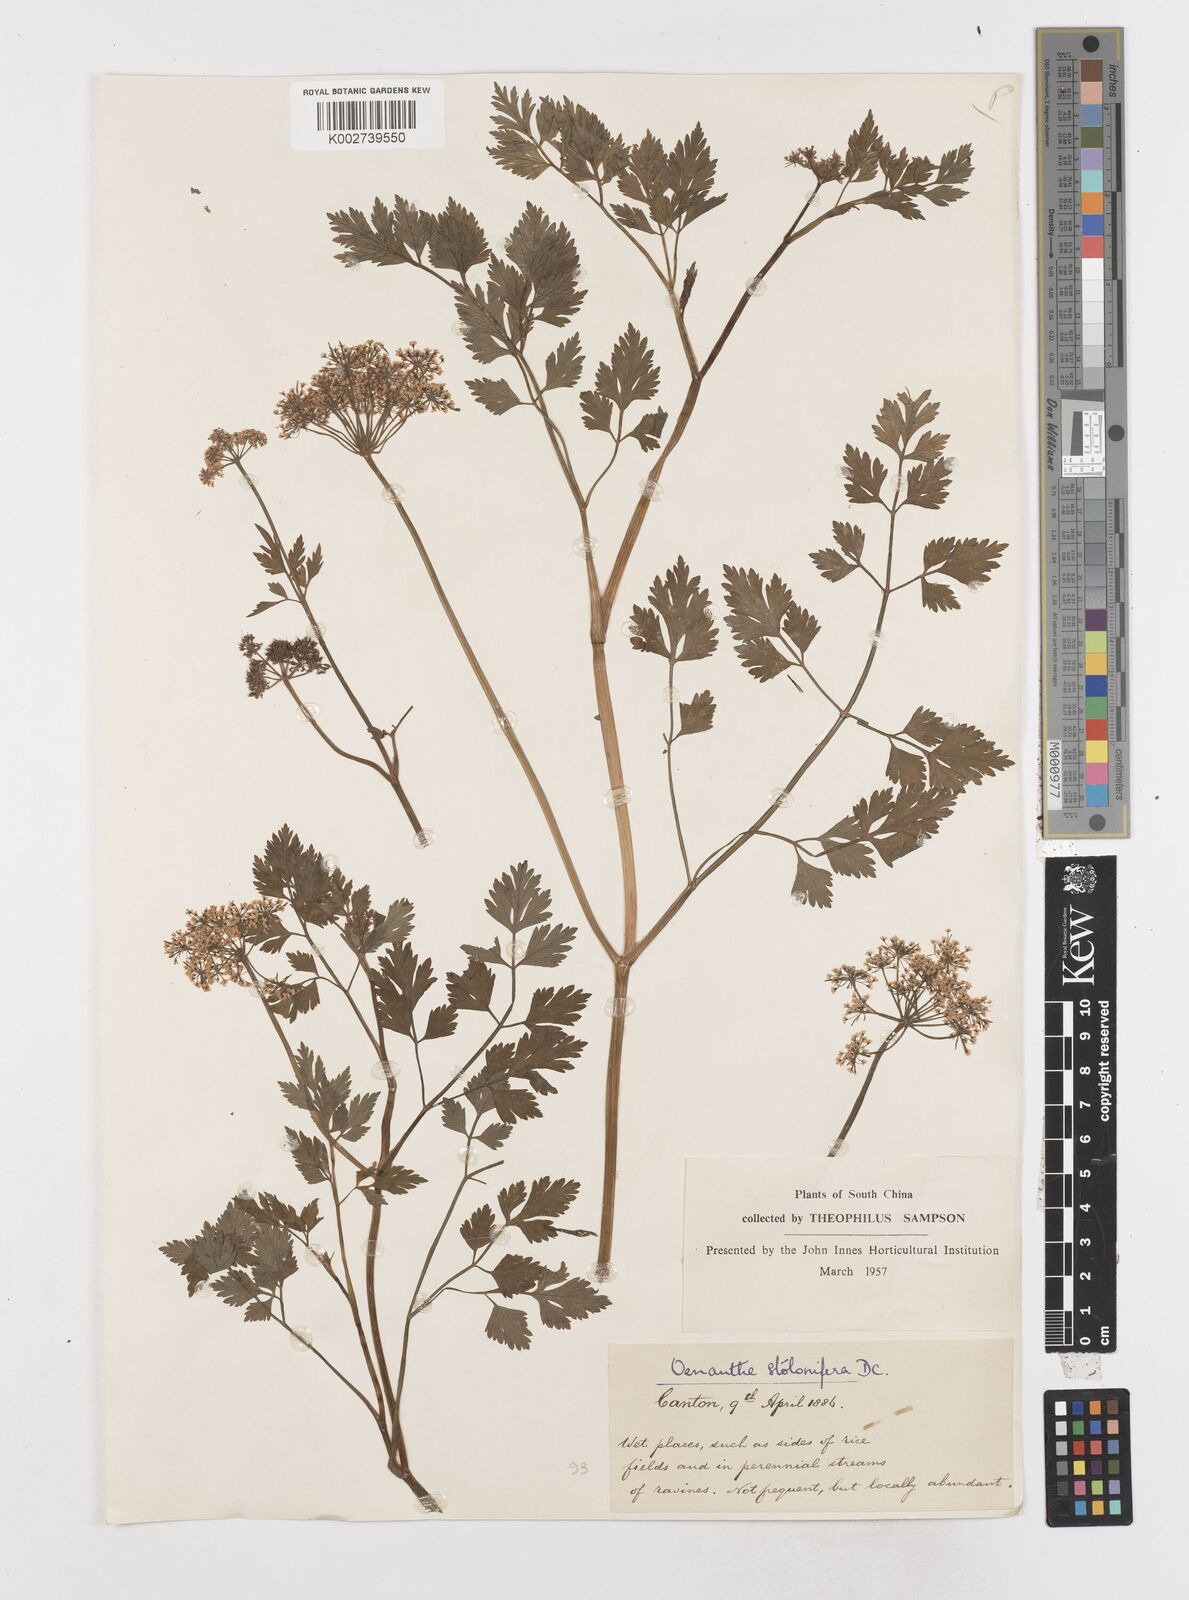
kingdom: Plantae
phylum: Tracheophyta
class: Magnoliopsida
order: Apiales
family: Apiaceae
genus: Oenanthe
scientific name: Oenanthe javanica
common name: Java water-dropwort
